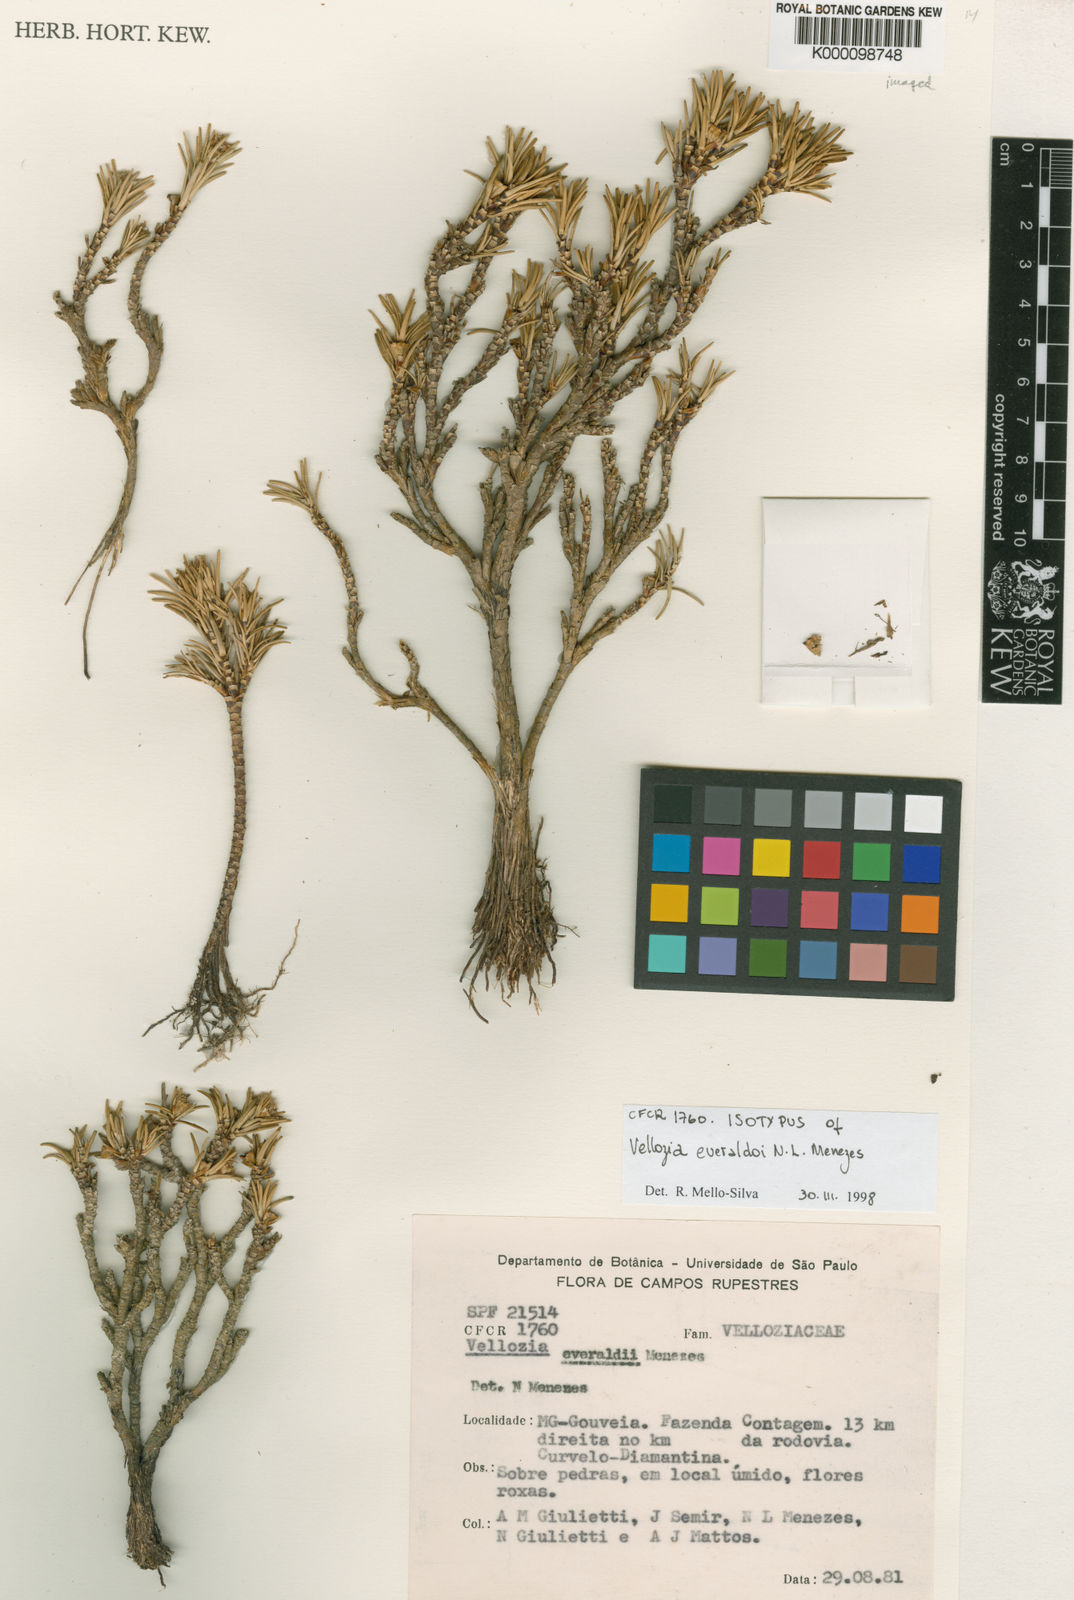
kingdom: Plantae
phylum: Tracheophyta
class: Liliopsida
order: Pandanales
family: Velloziaceae
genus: Vellozia
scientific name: Vellozia
